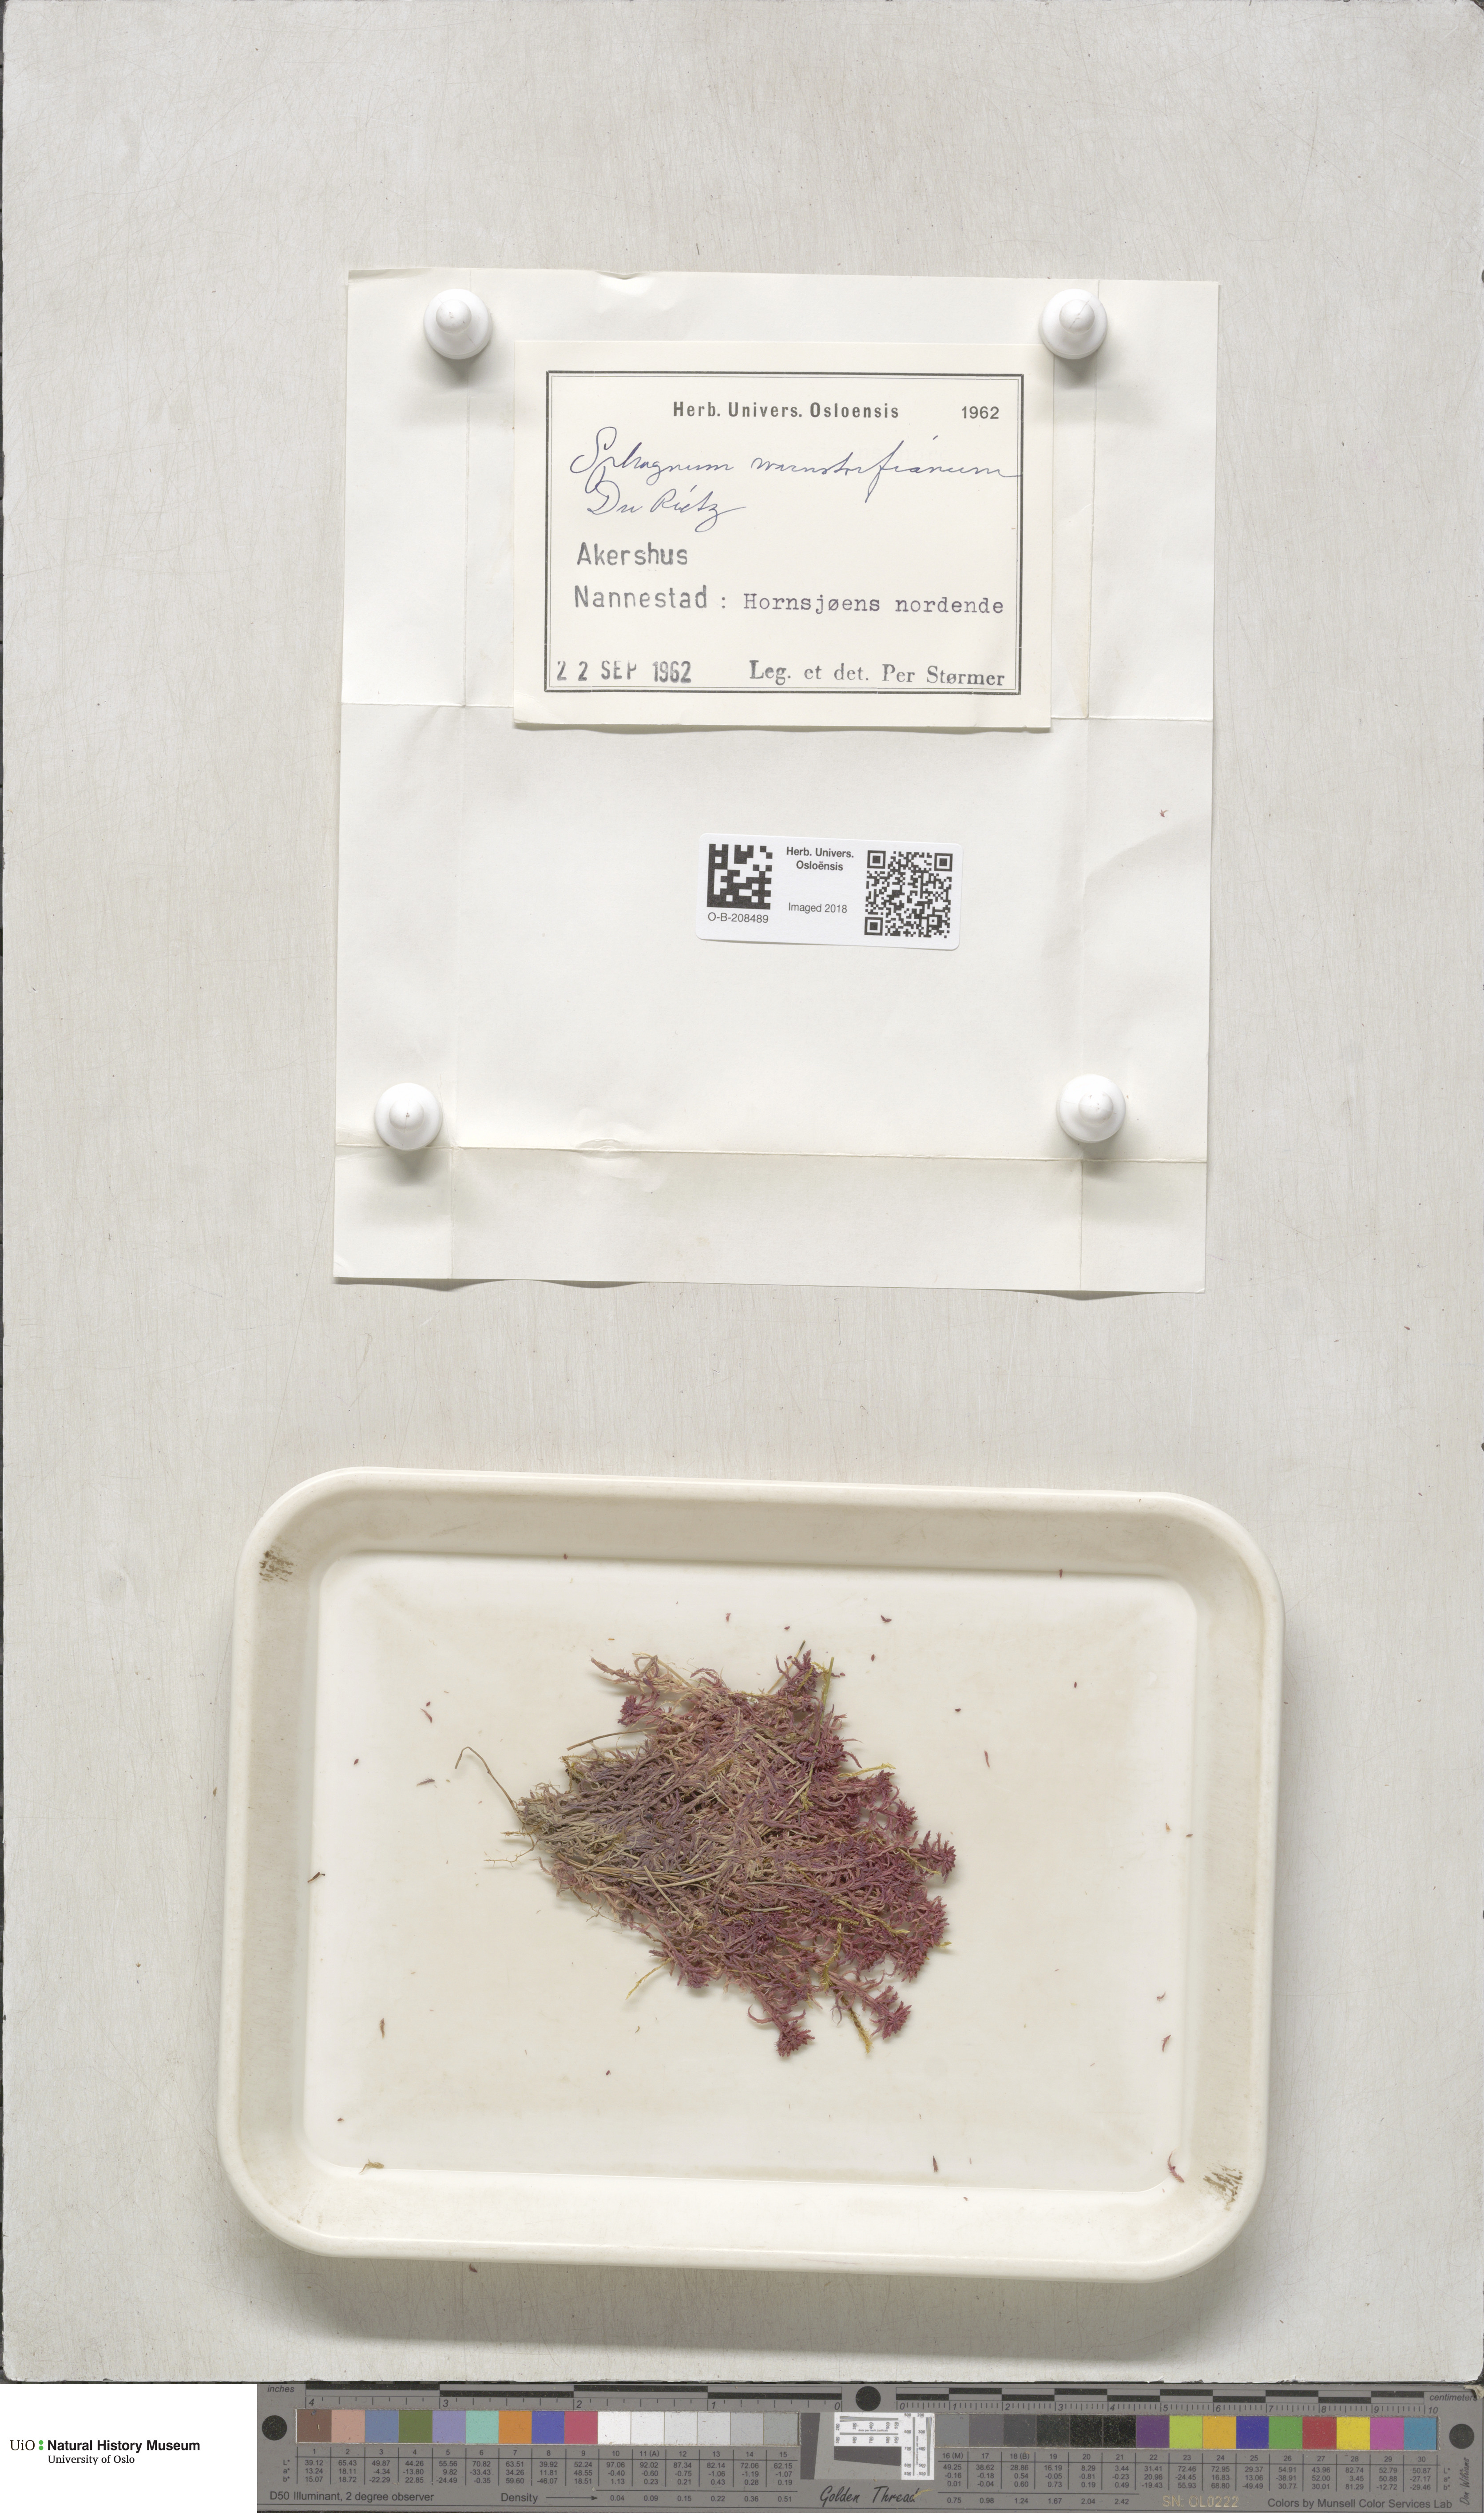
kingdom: Plantae
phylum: Bryophyta
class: Sphagnopsida
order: Sphagnales
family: Sphagnaceae
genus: Sphagnum
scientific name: Sphagnum warnstorfii
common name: Warnstorf's peat moss
